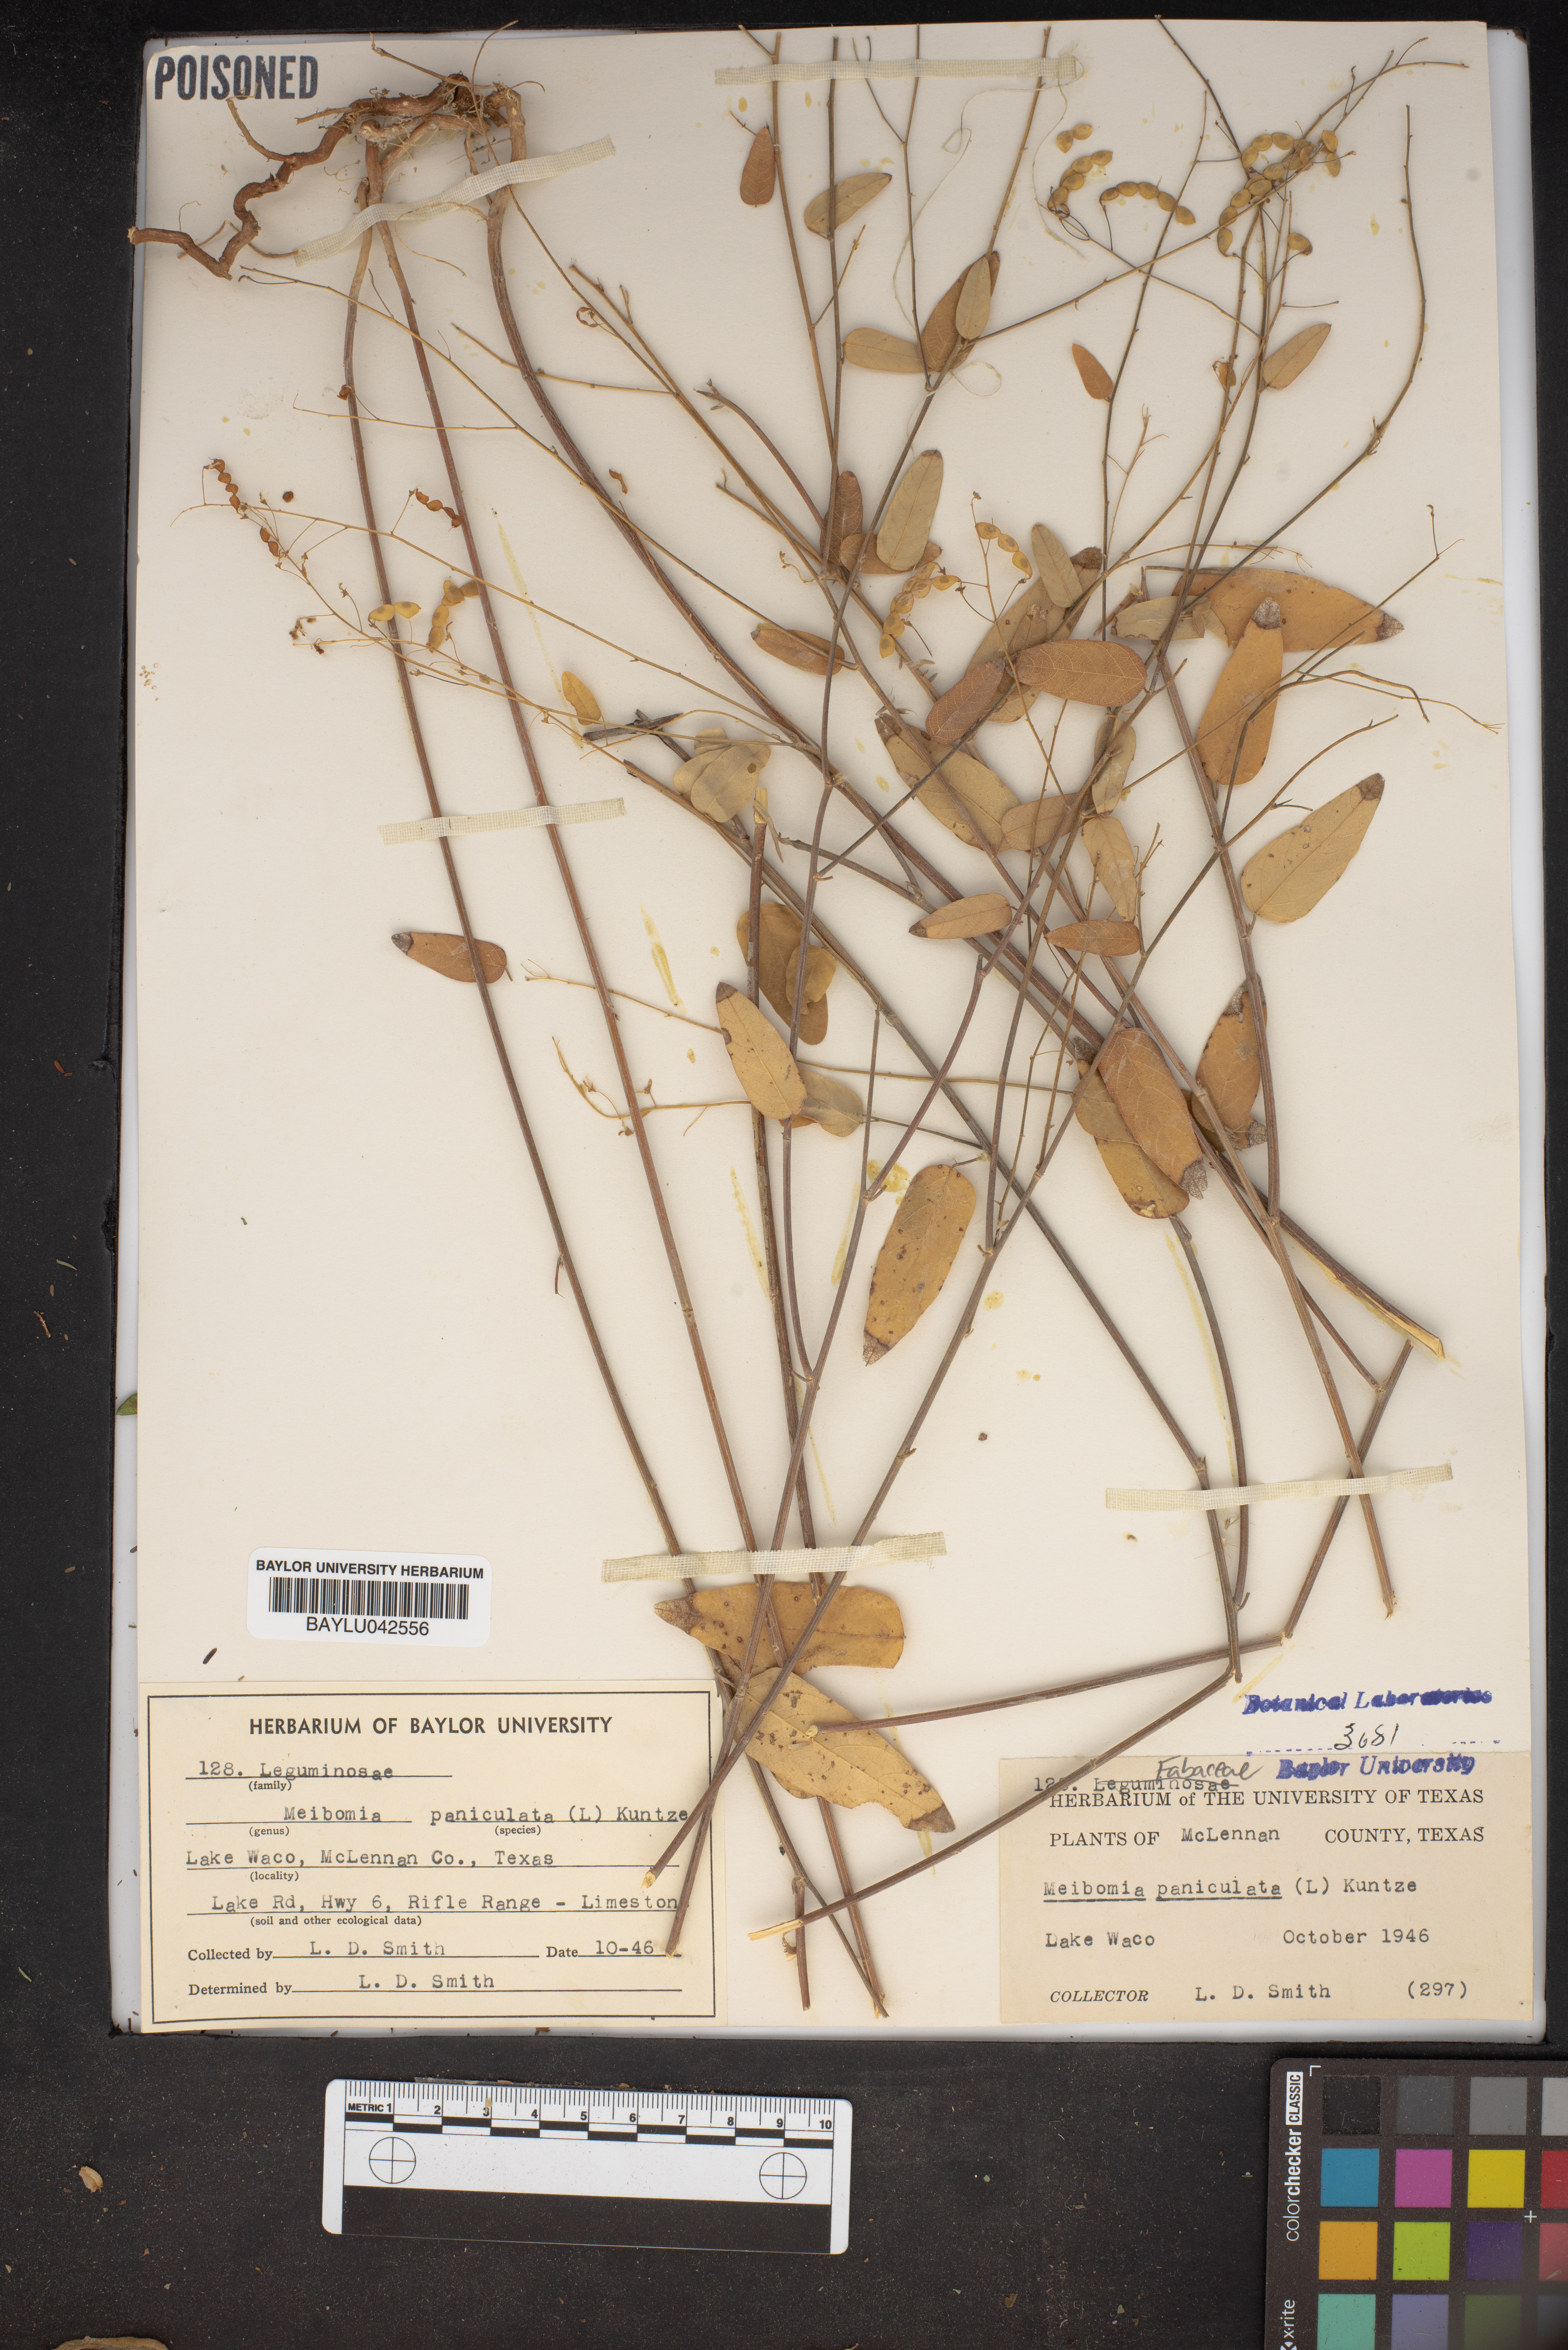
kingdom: Plantae
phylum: Tracheophyta
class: Magnoliopsida
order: Fabales
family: Fabaceae
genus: Desmodium
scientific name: Desmodium paniculatum
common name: Panicled tick-clover
